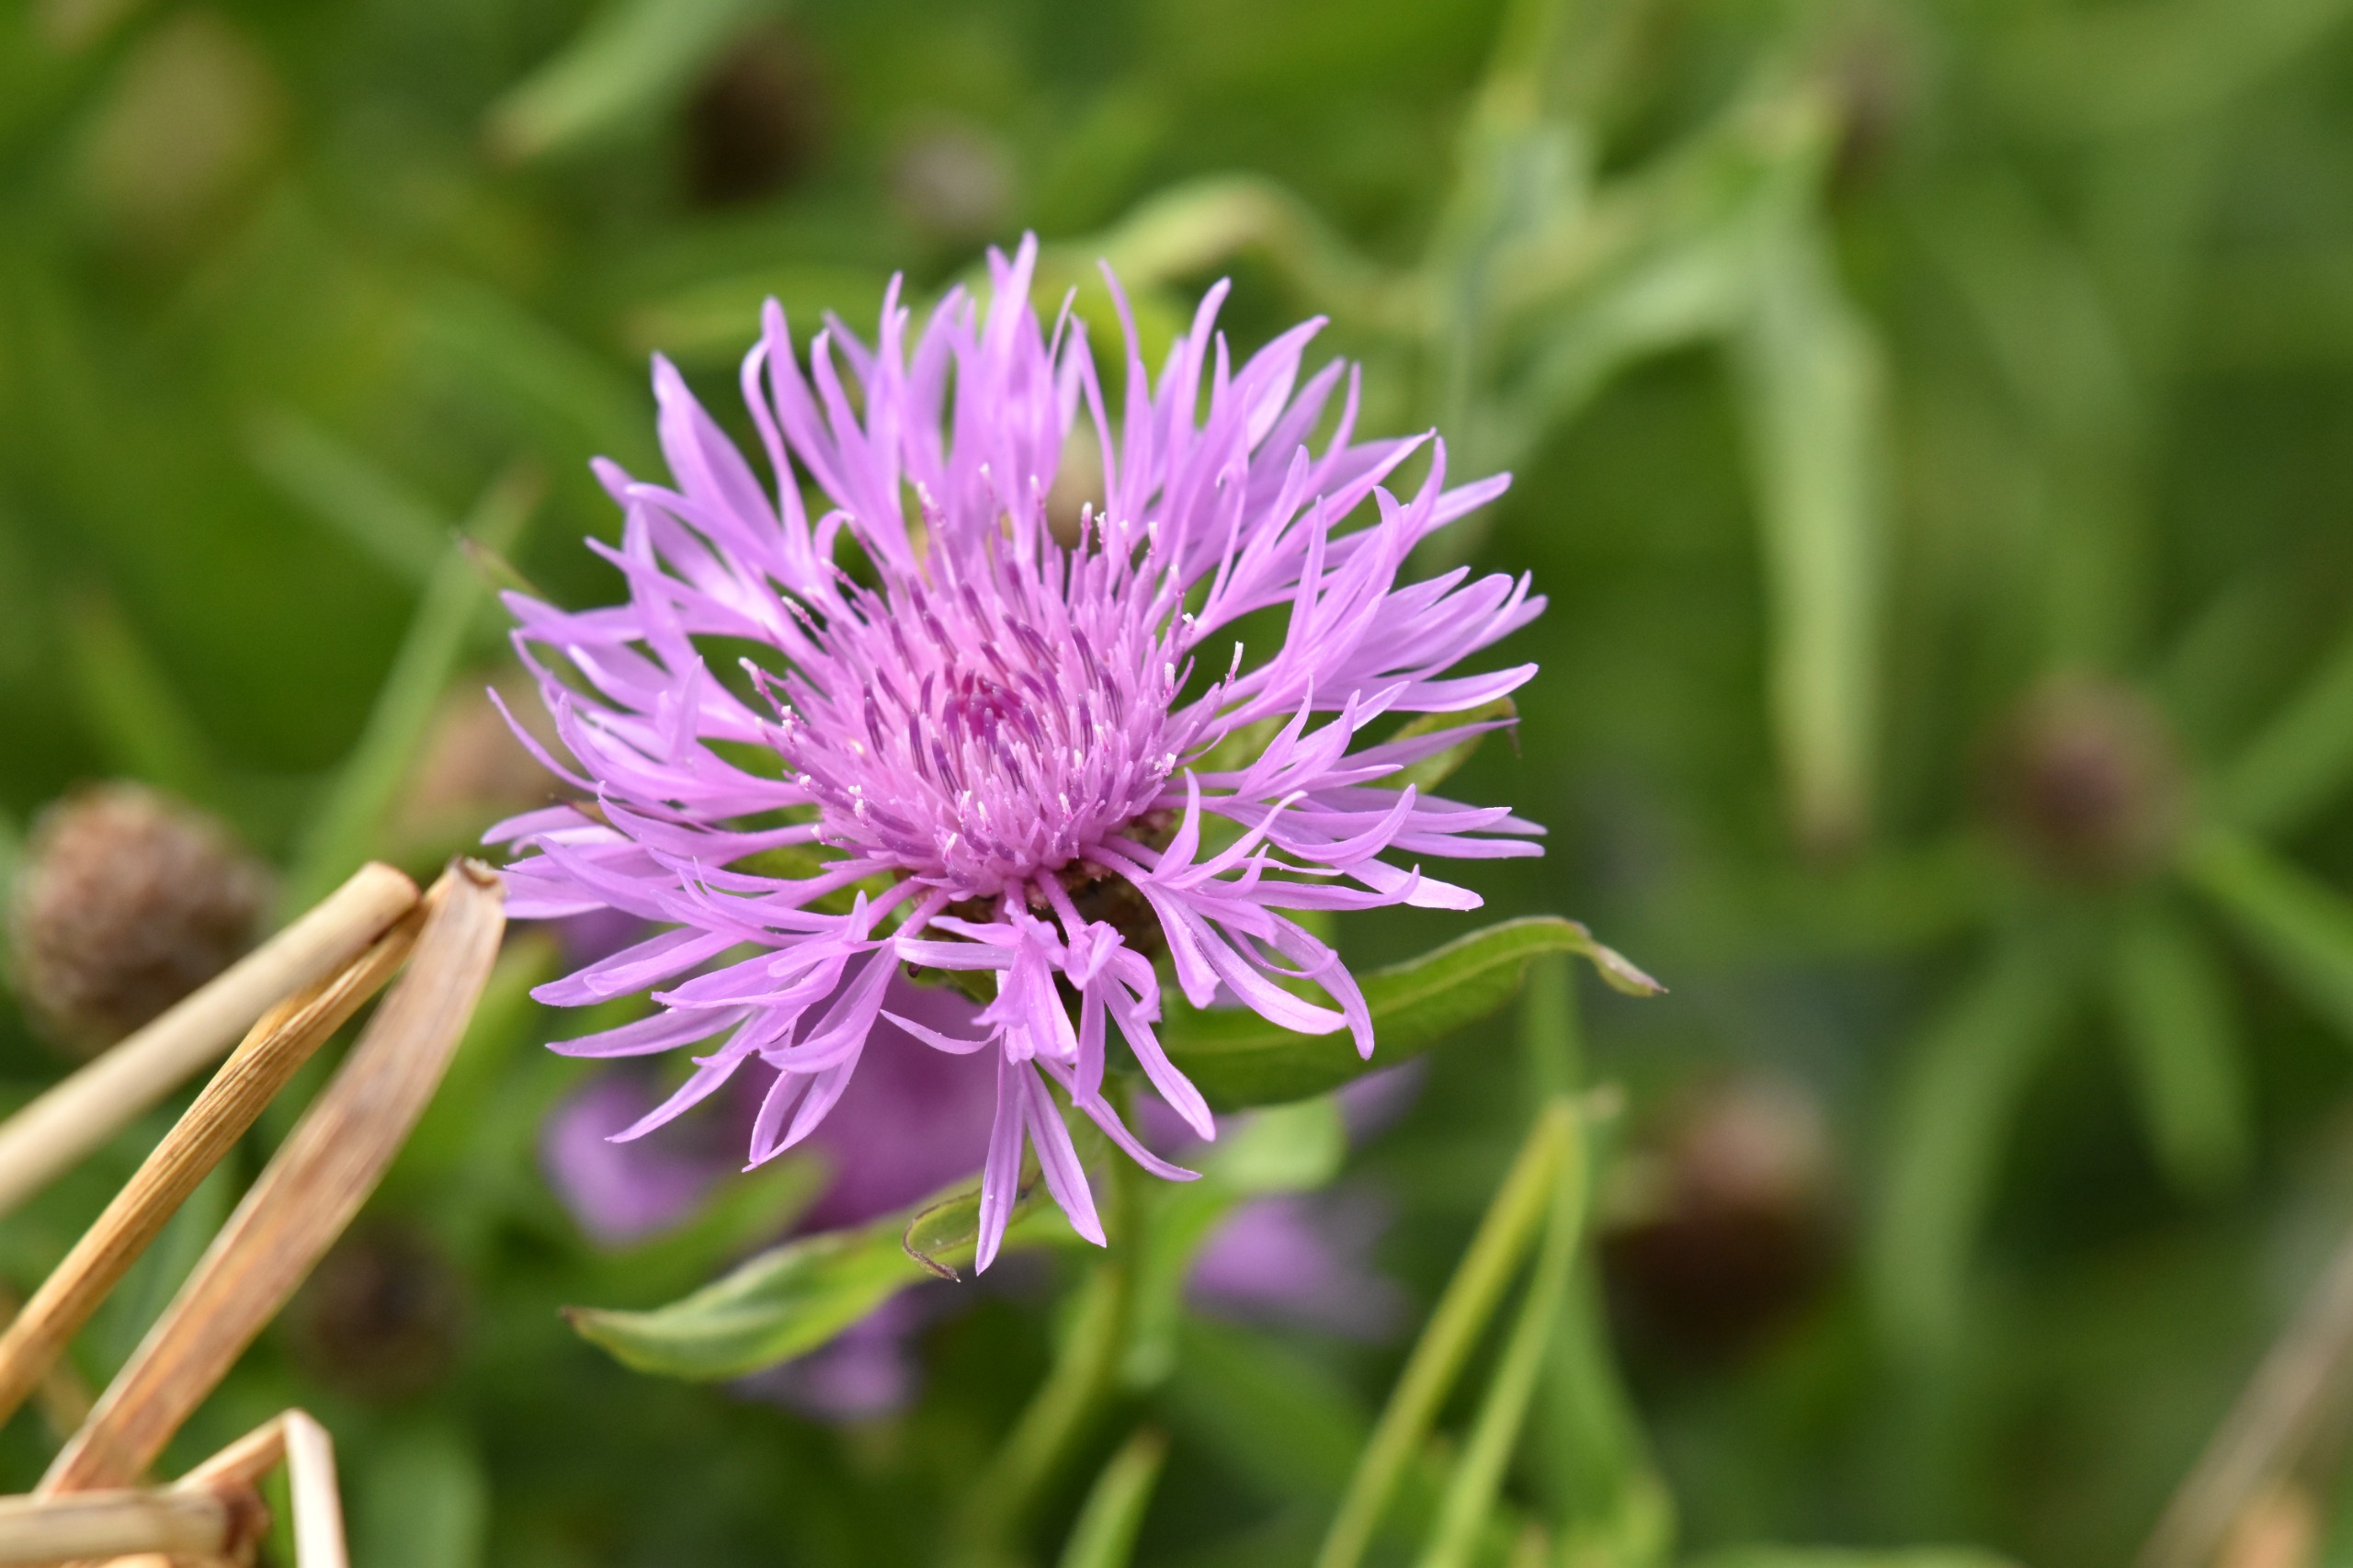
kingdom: Plantae
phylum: Tracheophyta
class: Magnoliopsida
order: Asterales
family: Asteraceae
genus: Centaurea
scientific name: Centaurea jacea
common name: Almindelig knopurt
